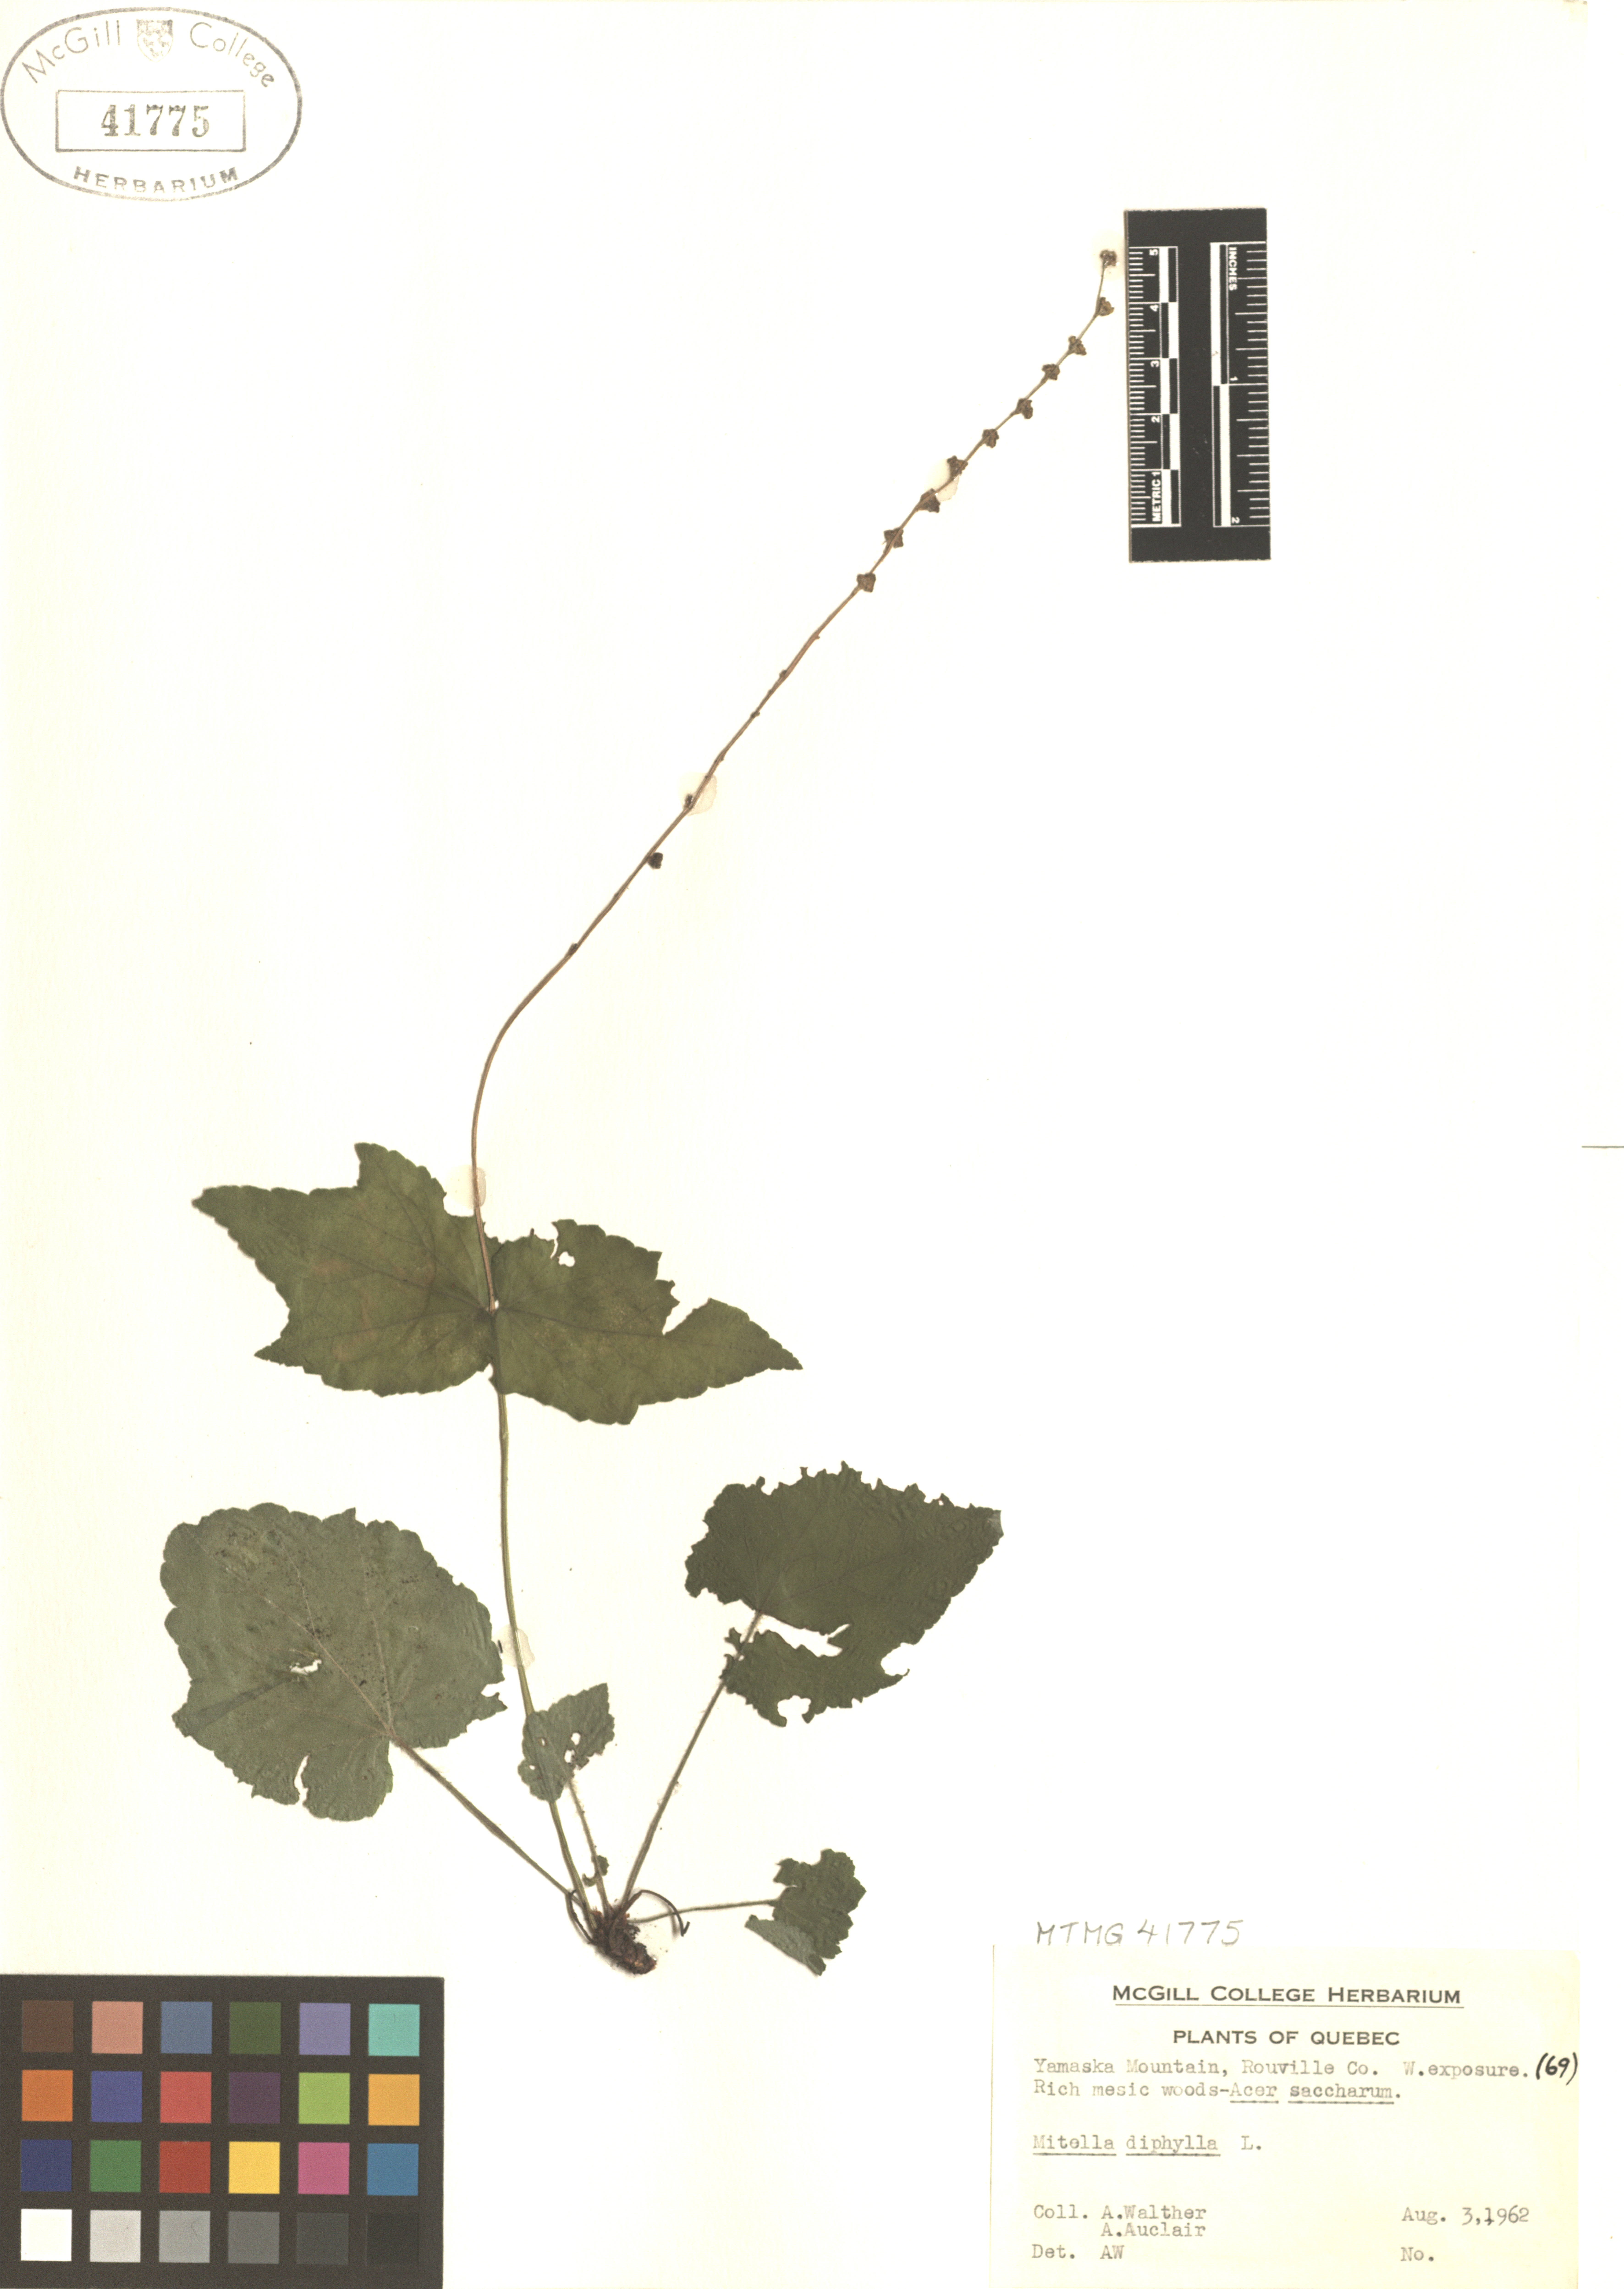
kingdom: Plantae
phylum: Tracheophyta
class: Magnoliopsida
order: Saxifragales
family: Saxifragaceae
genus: Mitella
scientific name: Mitella diphylla
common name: Coolwort
